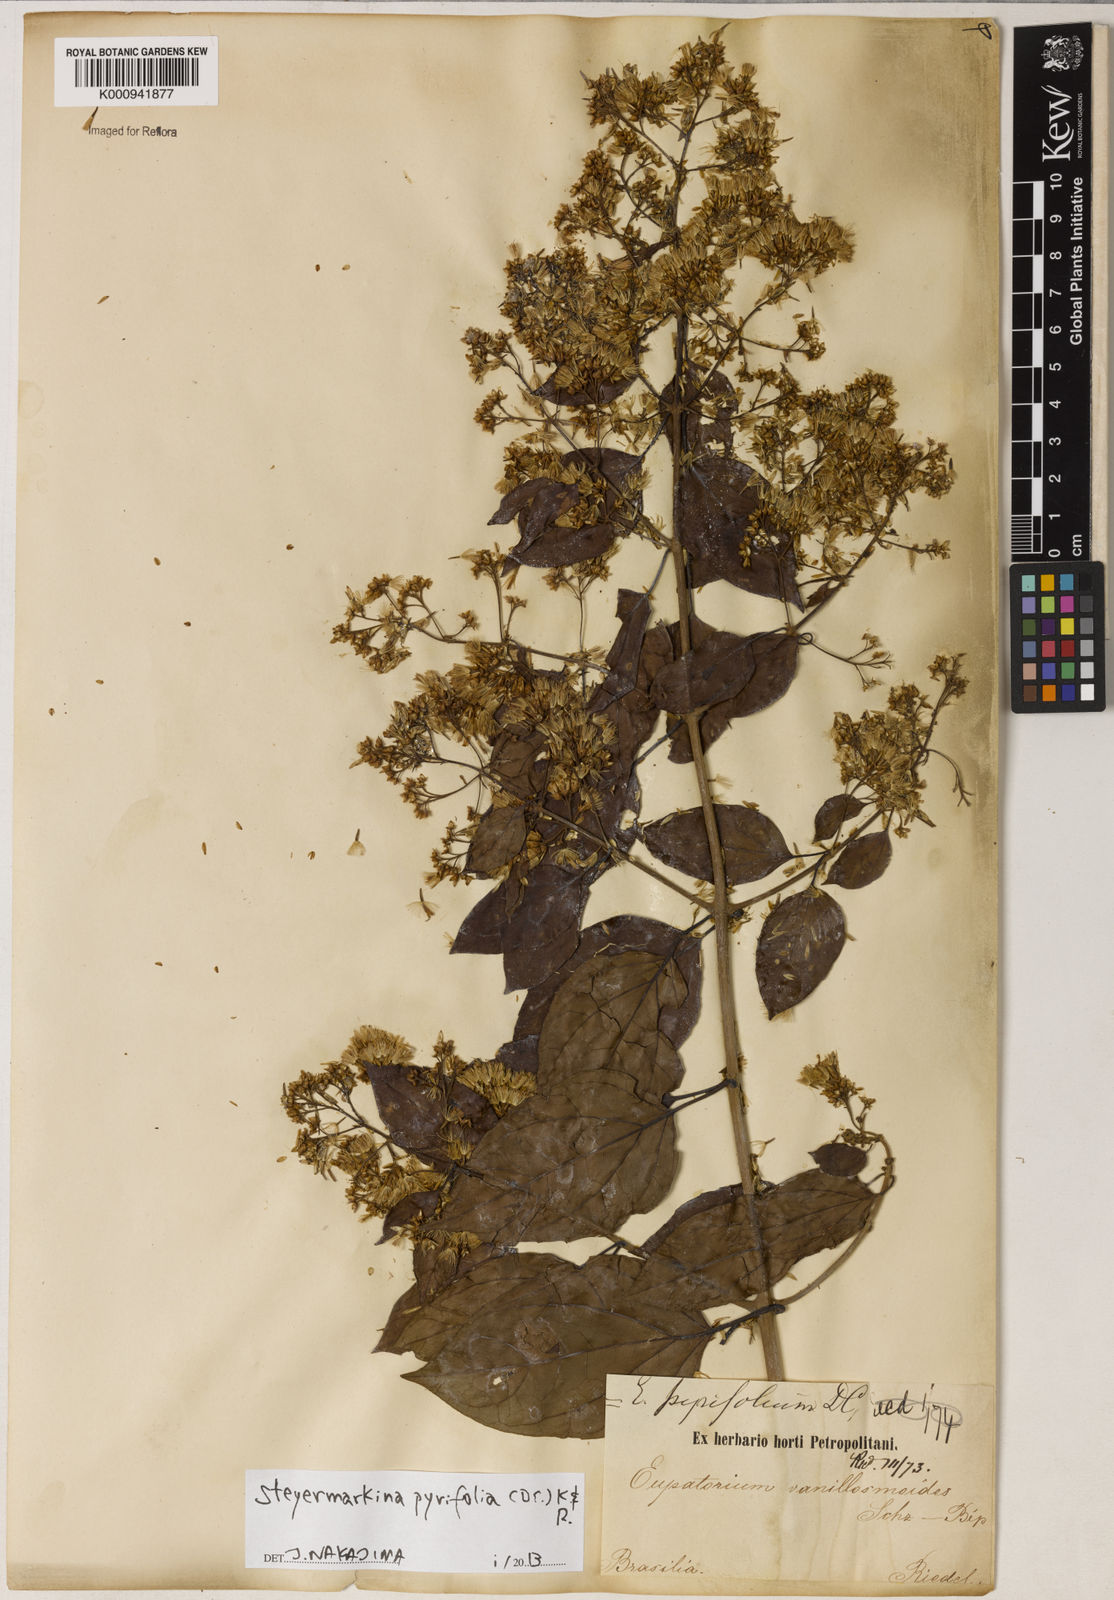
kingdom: Plantae
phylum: Tracheophyta
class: Magnoliopsida
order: Asterales
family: Asteraceae
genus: Steyermarkina
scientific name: Steyermarkina pyrifolia
